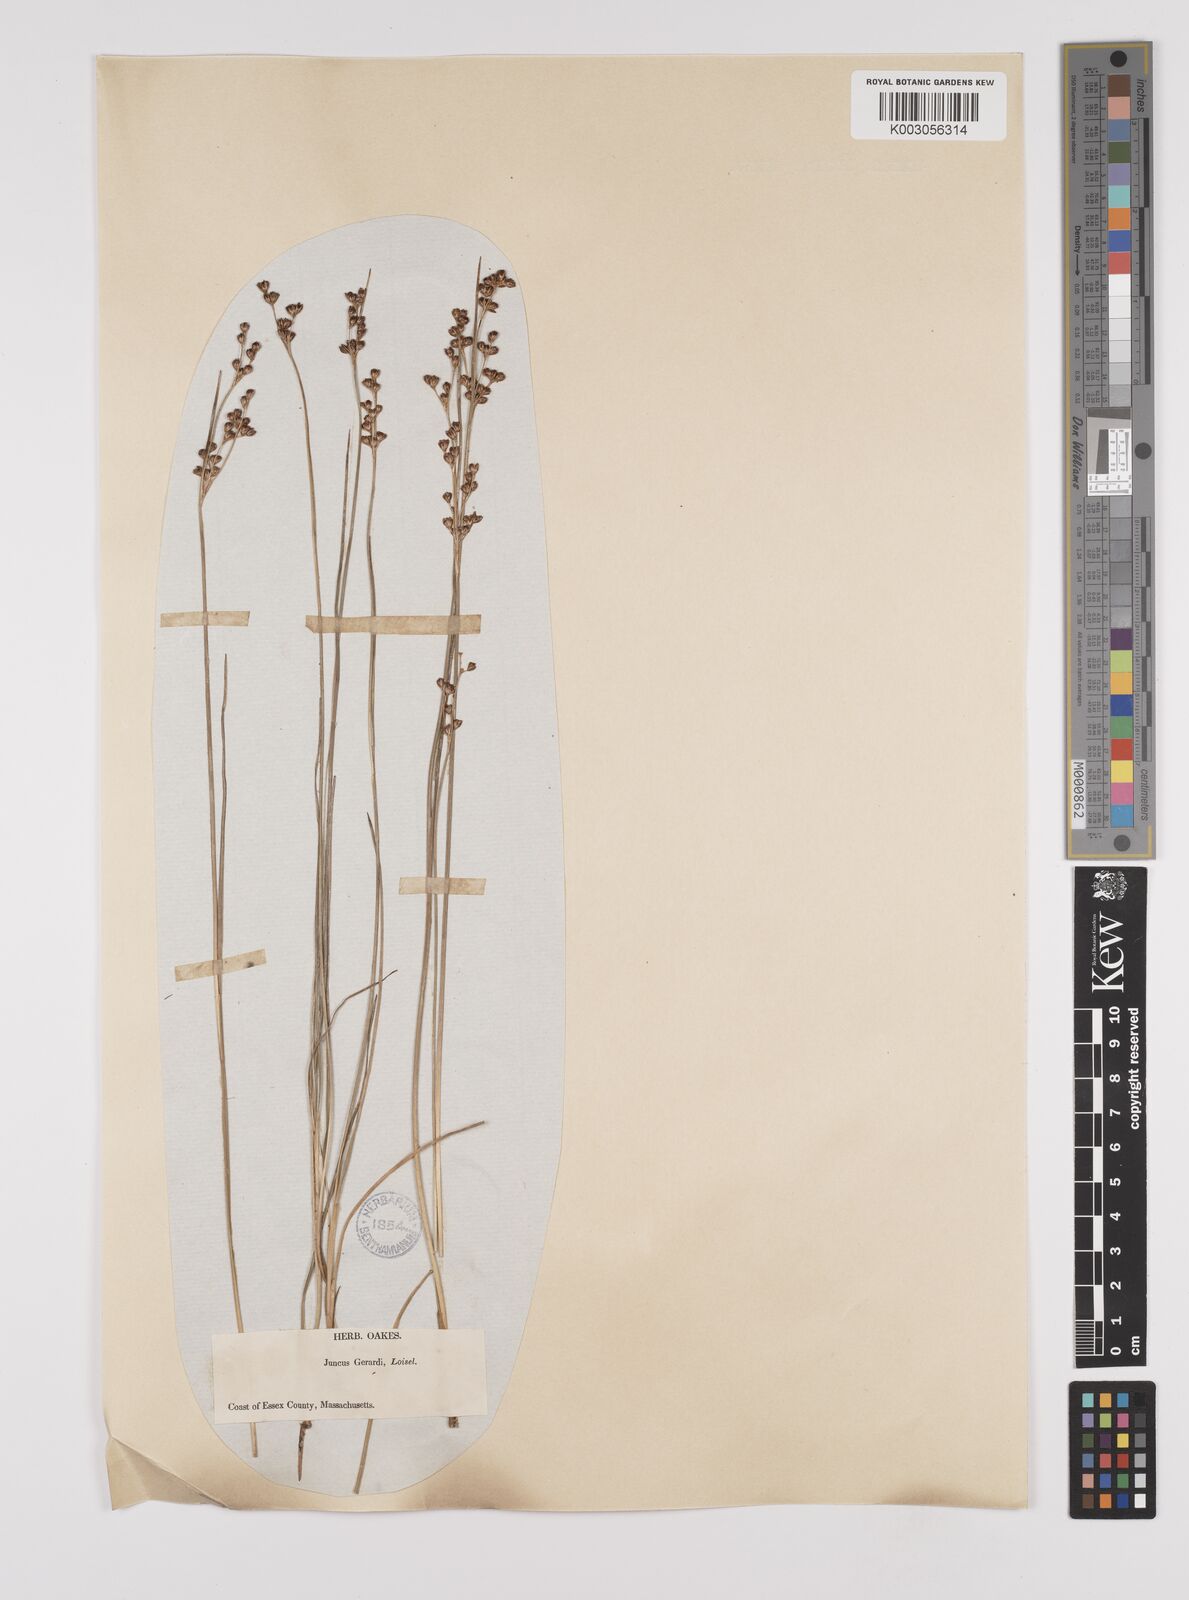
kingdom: Plantae
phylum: Tracheophyta
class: Liliopsida
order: Poales
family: Juncaceae
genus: Juncus
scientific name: Juncus gerardi
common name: Saltmarsh rush
